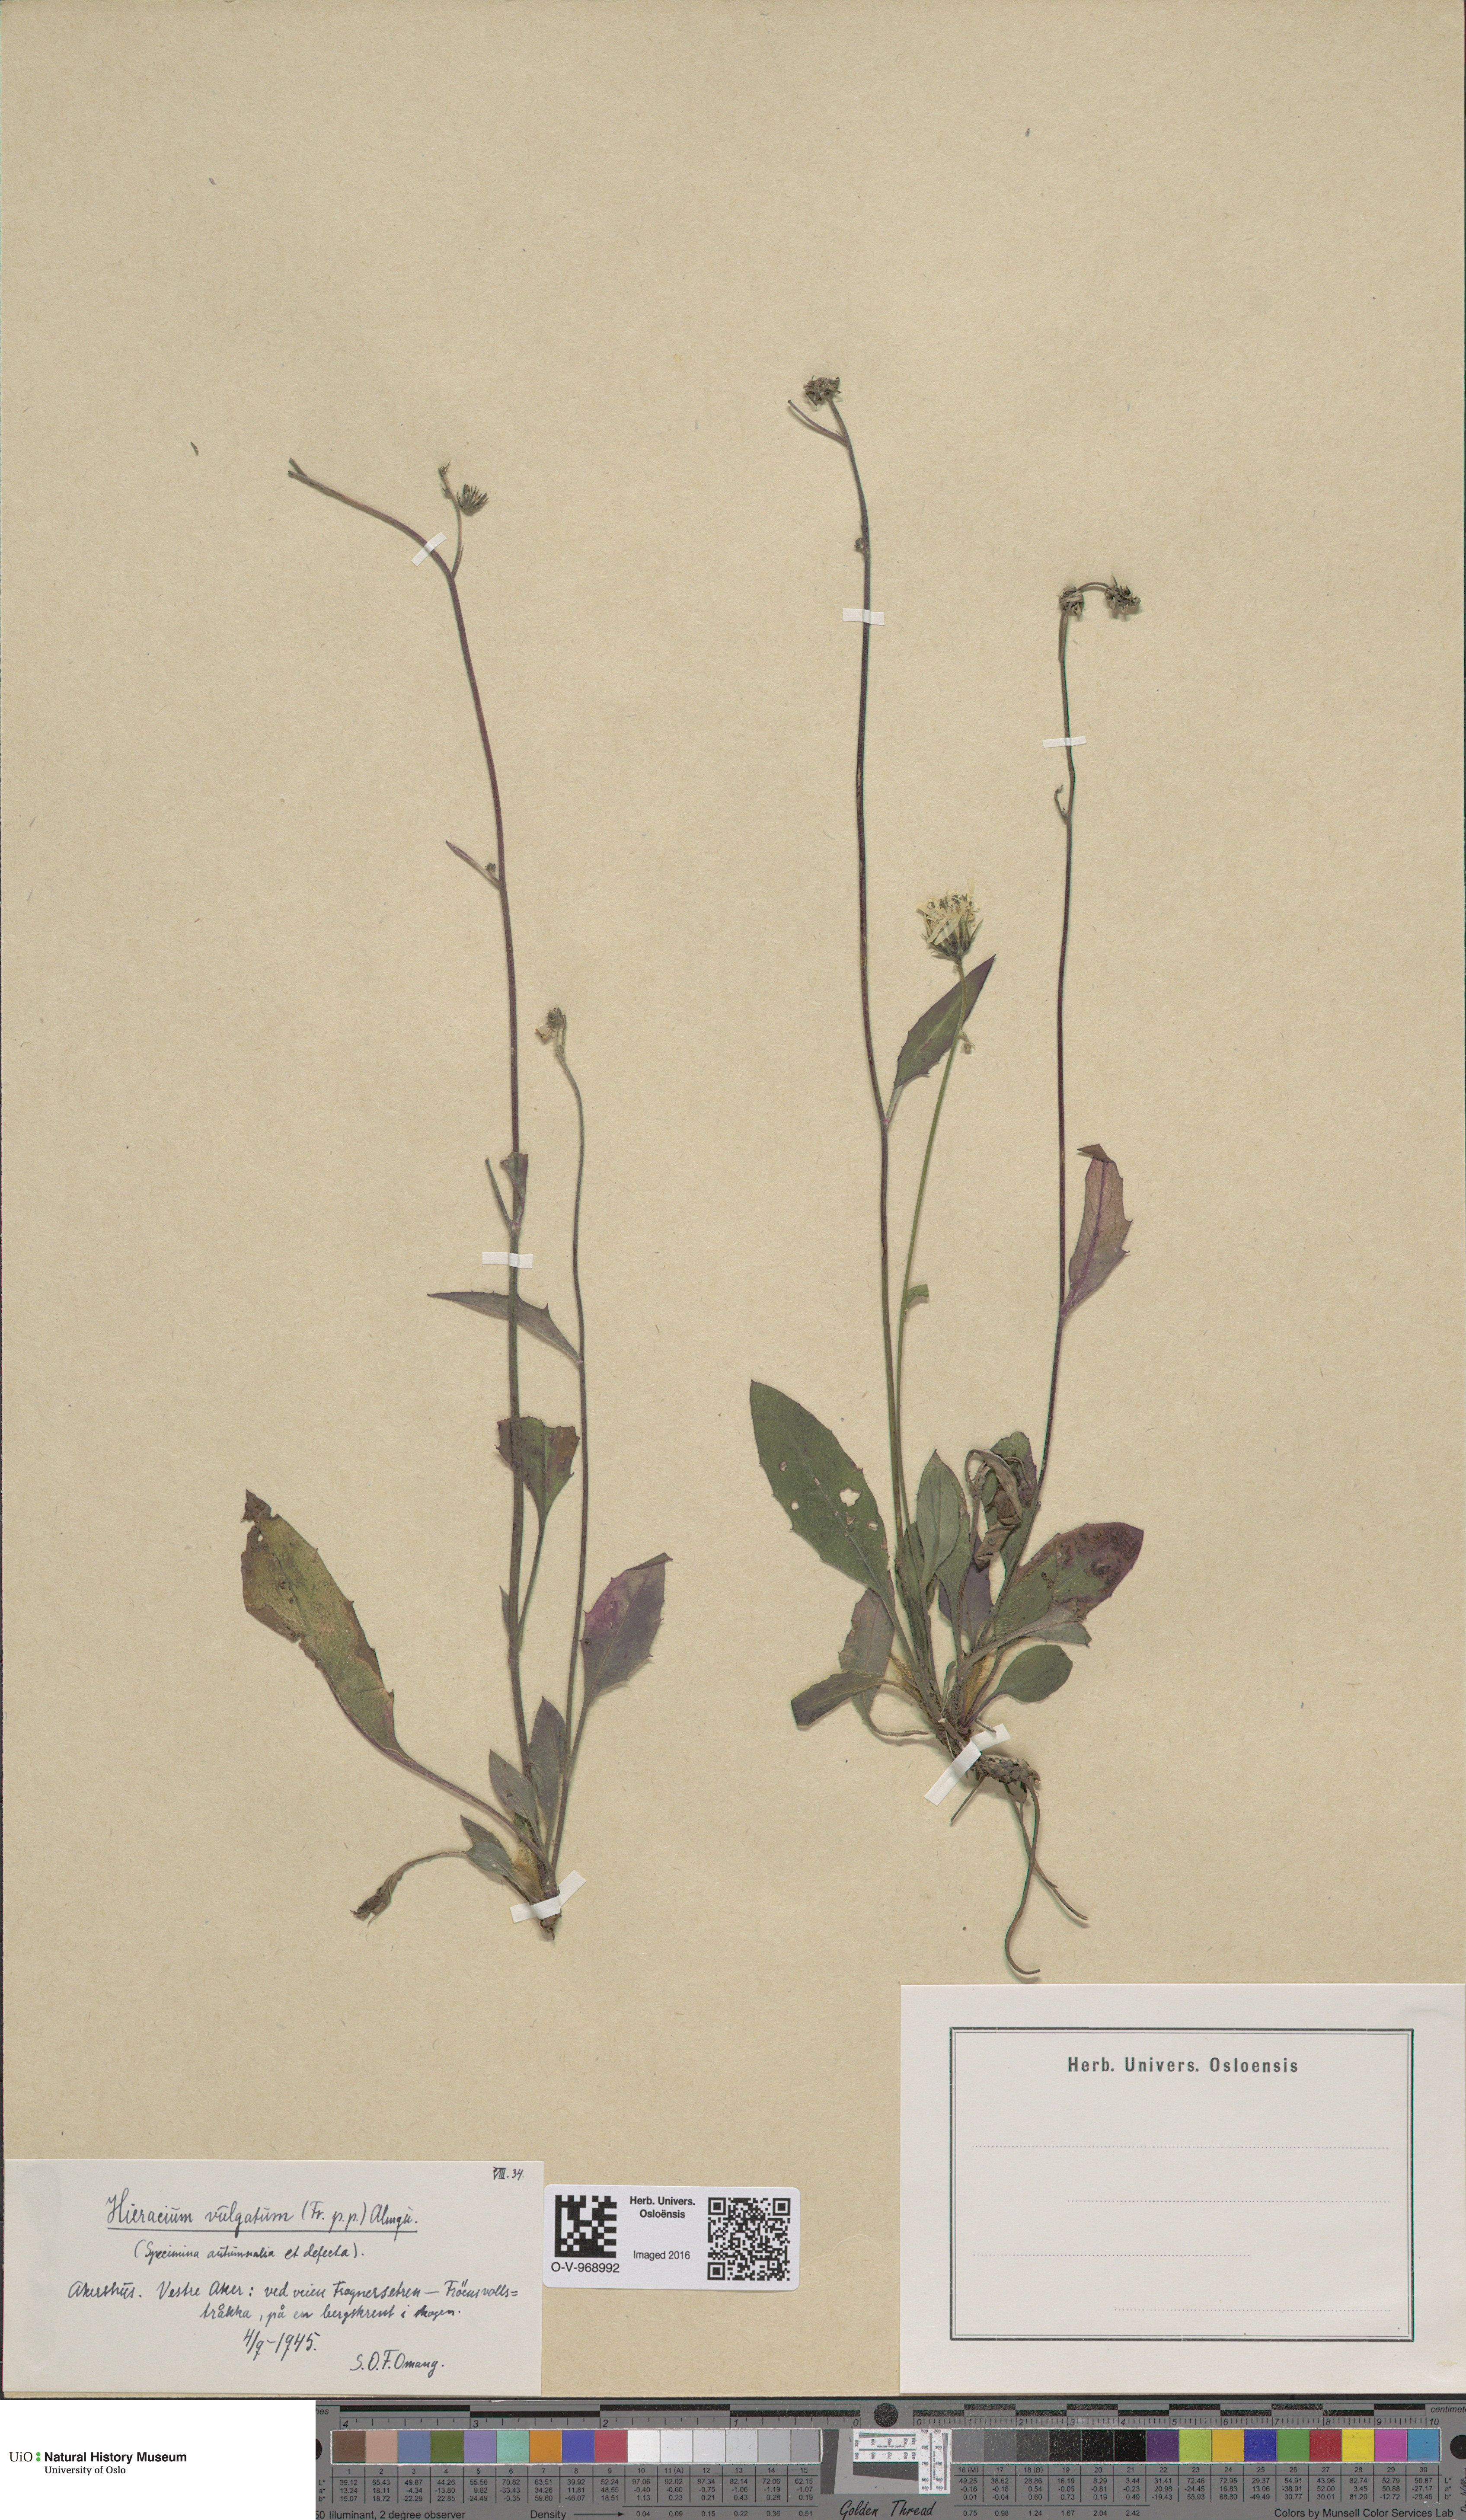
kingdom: Plantae
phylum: Tracheophyta
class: Magnoliopsida
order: Asterales
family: Asteraceae
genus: Hieracium
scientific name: Hieracium vulgatum
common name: Common hawkweed
